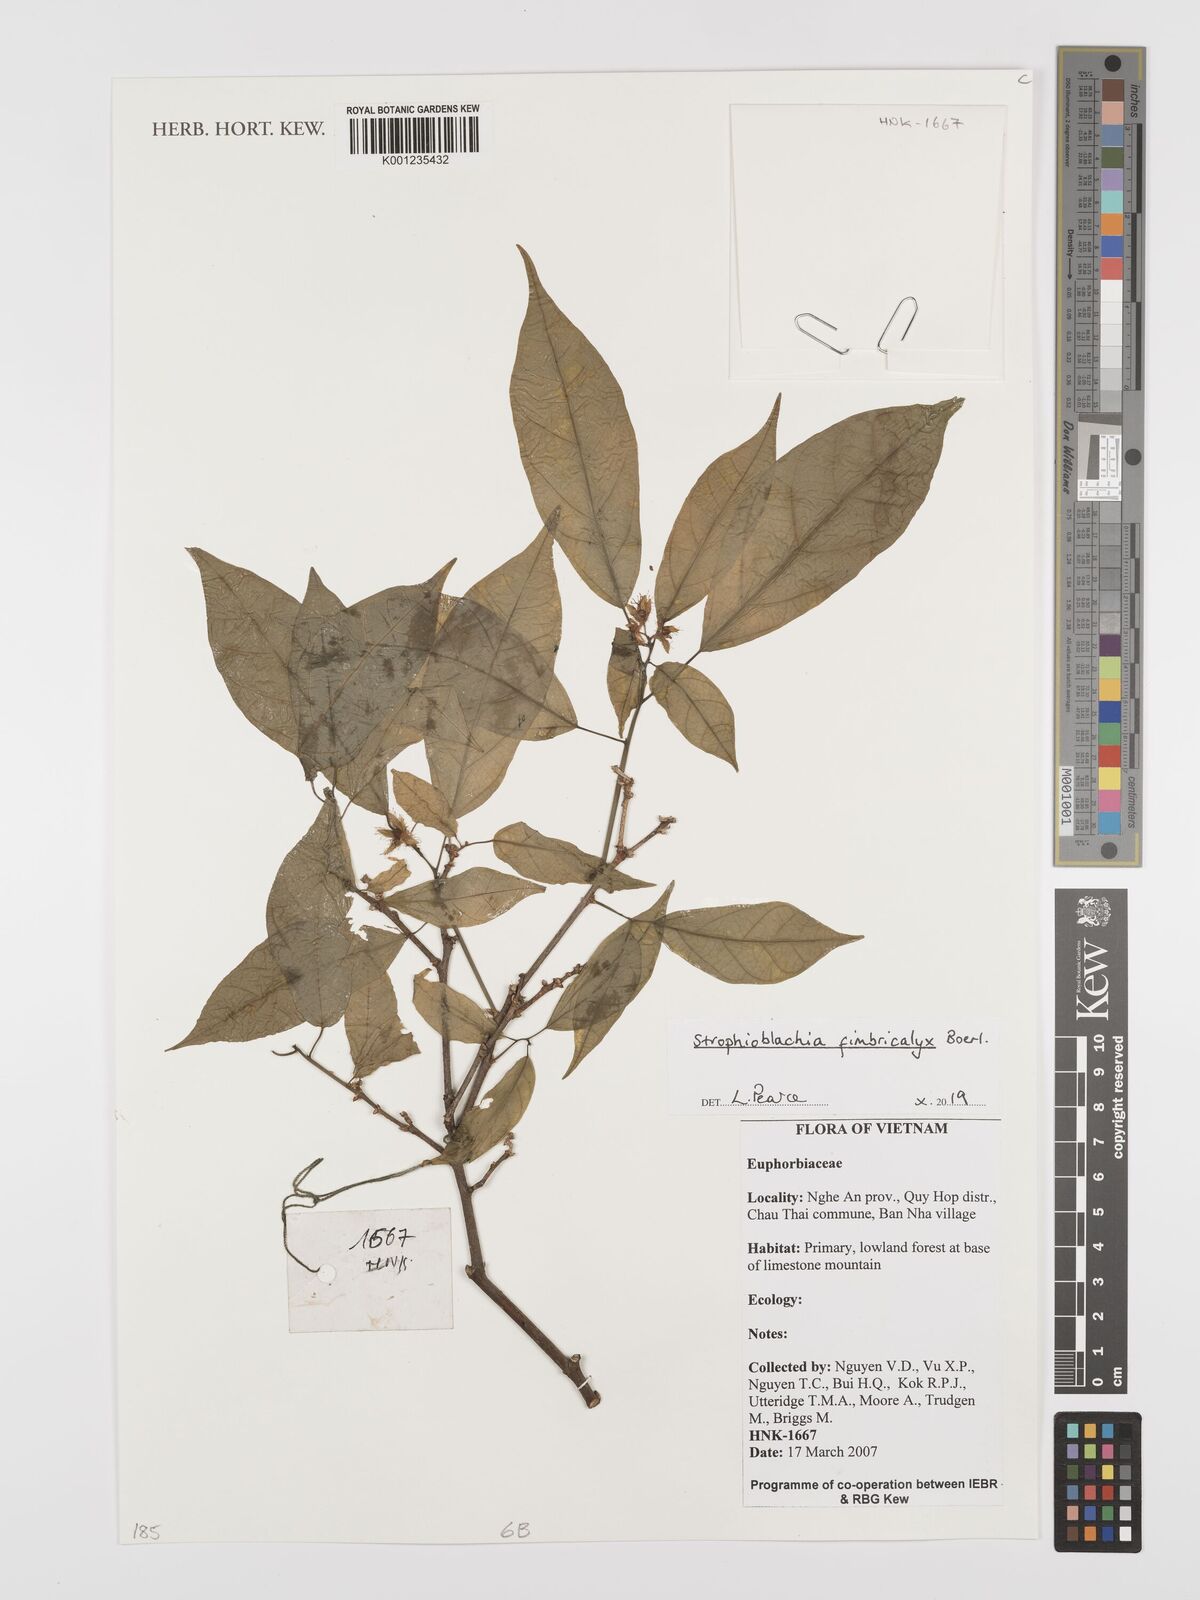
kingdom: Plantae
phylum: Tracheophyta
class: Magnoliopsida
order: Malpighiales
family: Euphorbiaceae
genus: Strophioblachia
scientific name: Strophioblachia fimbricalyx
